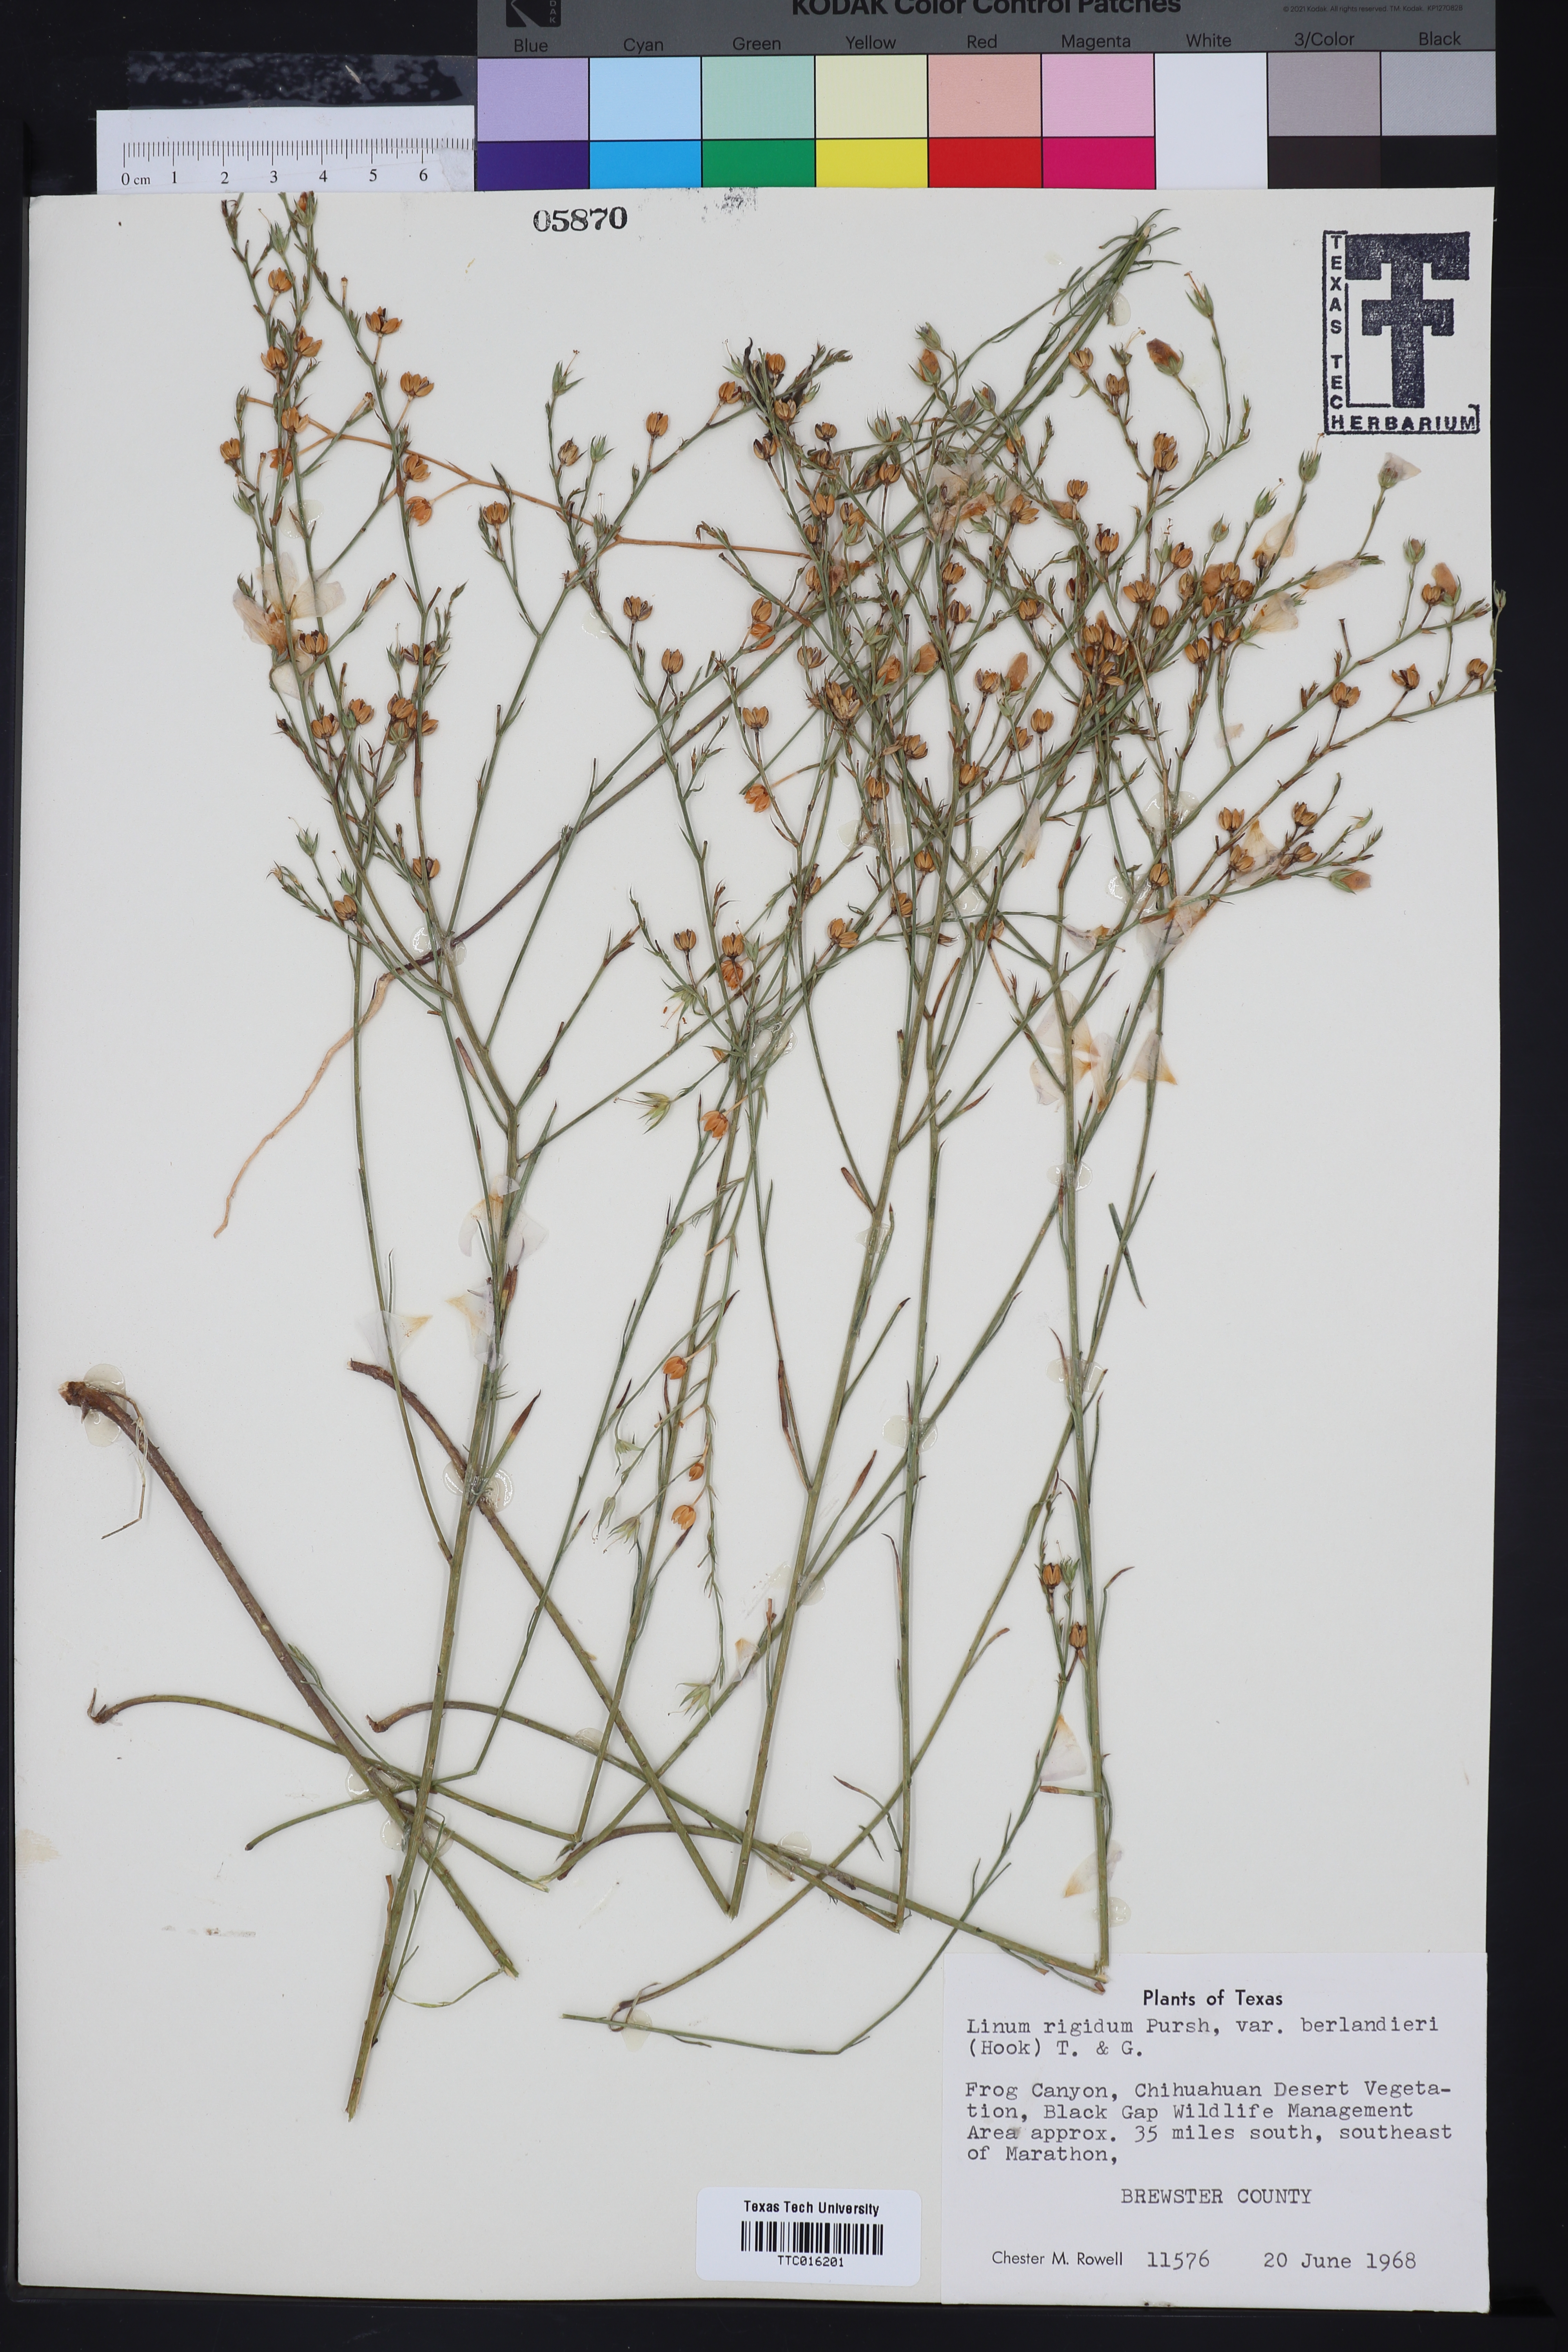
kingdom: Plantae
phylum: Tracheophyta
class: Magnoliopsida
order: Malpighiales
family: Linaceae
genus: Linum
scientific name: Linum berlandieri
